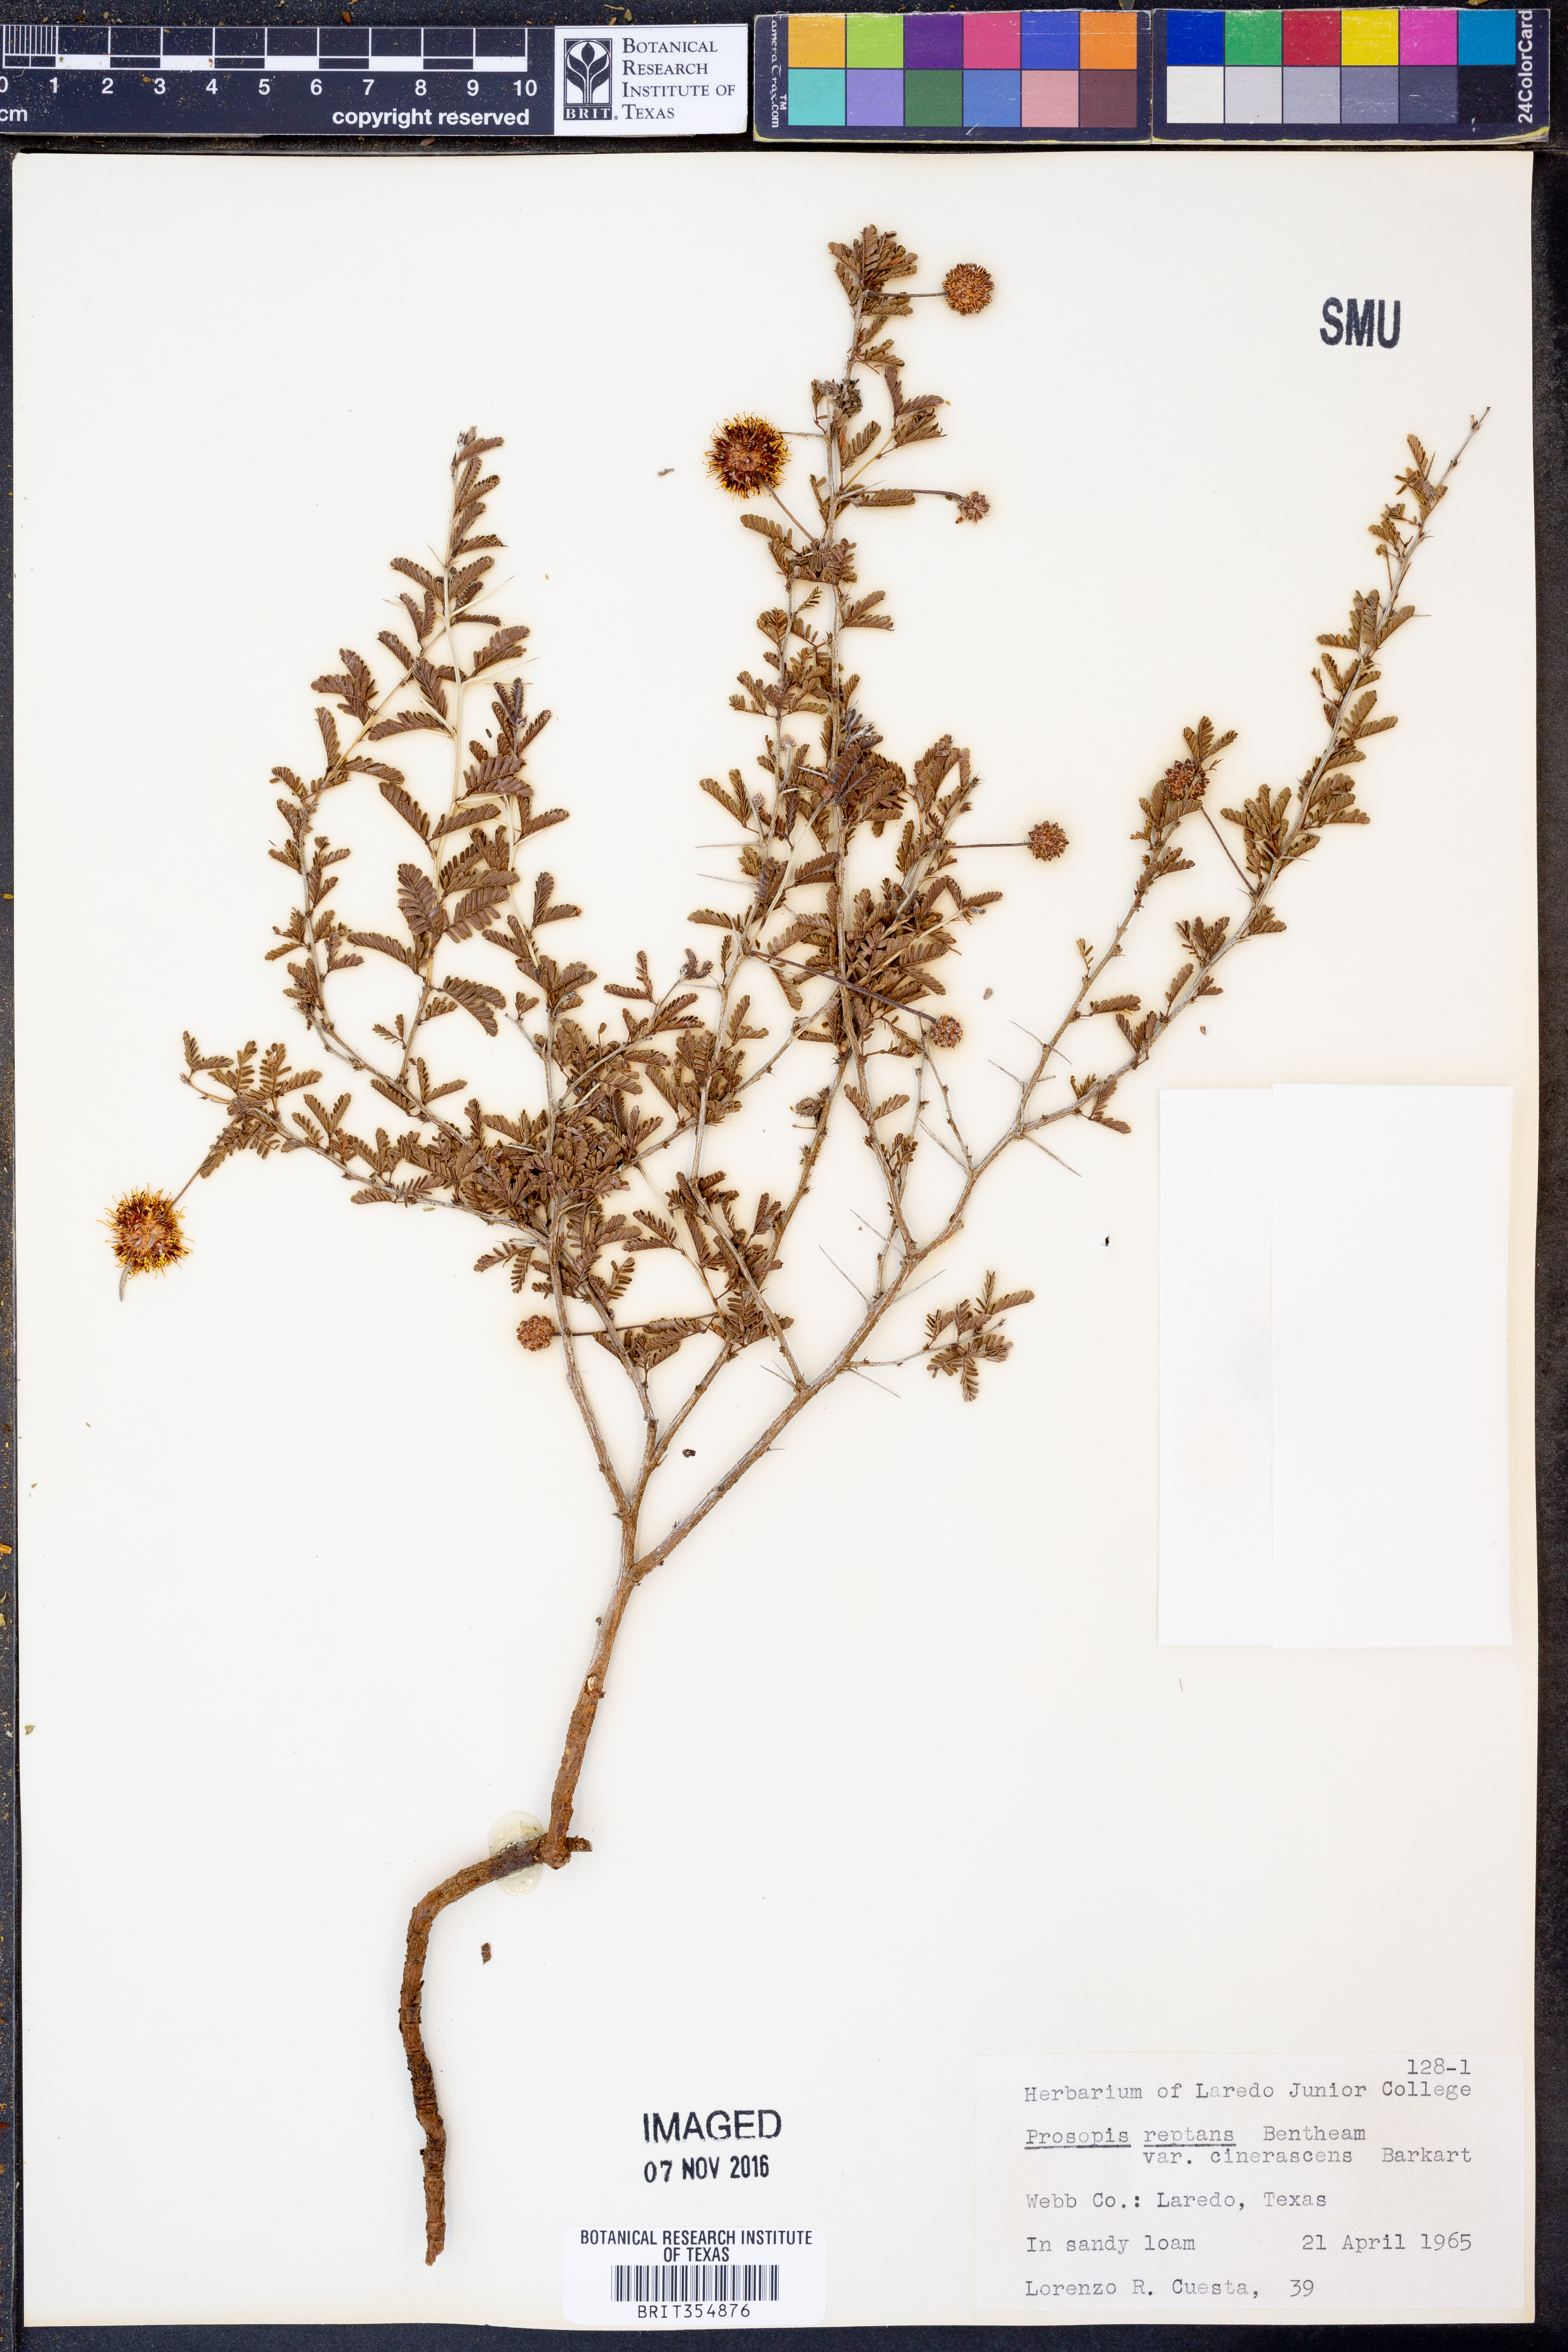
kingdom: Plantae
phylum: Tracheophyta
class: Magnoliopsida
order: Fabales
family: Fabaceae
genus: Prosopis
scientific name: Prosopis cinerascens
